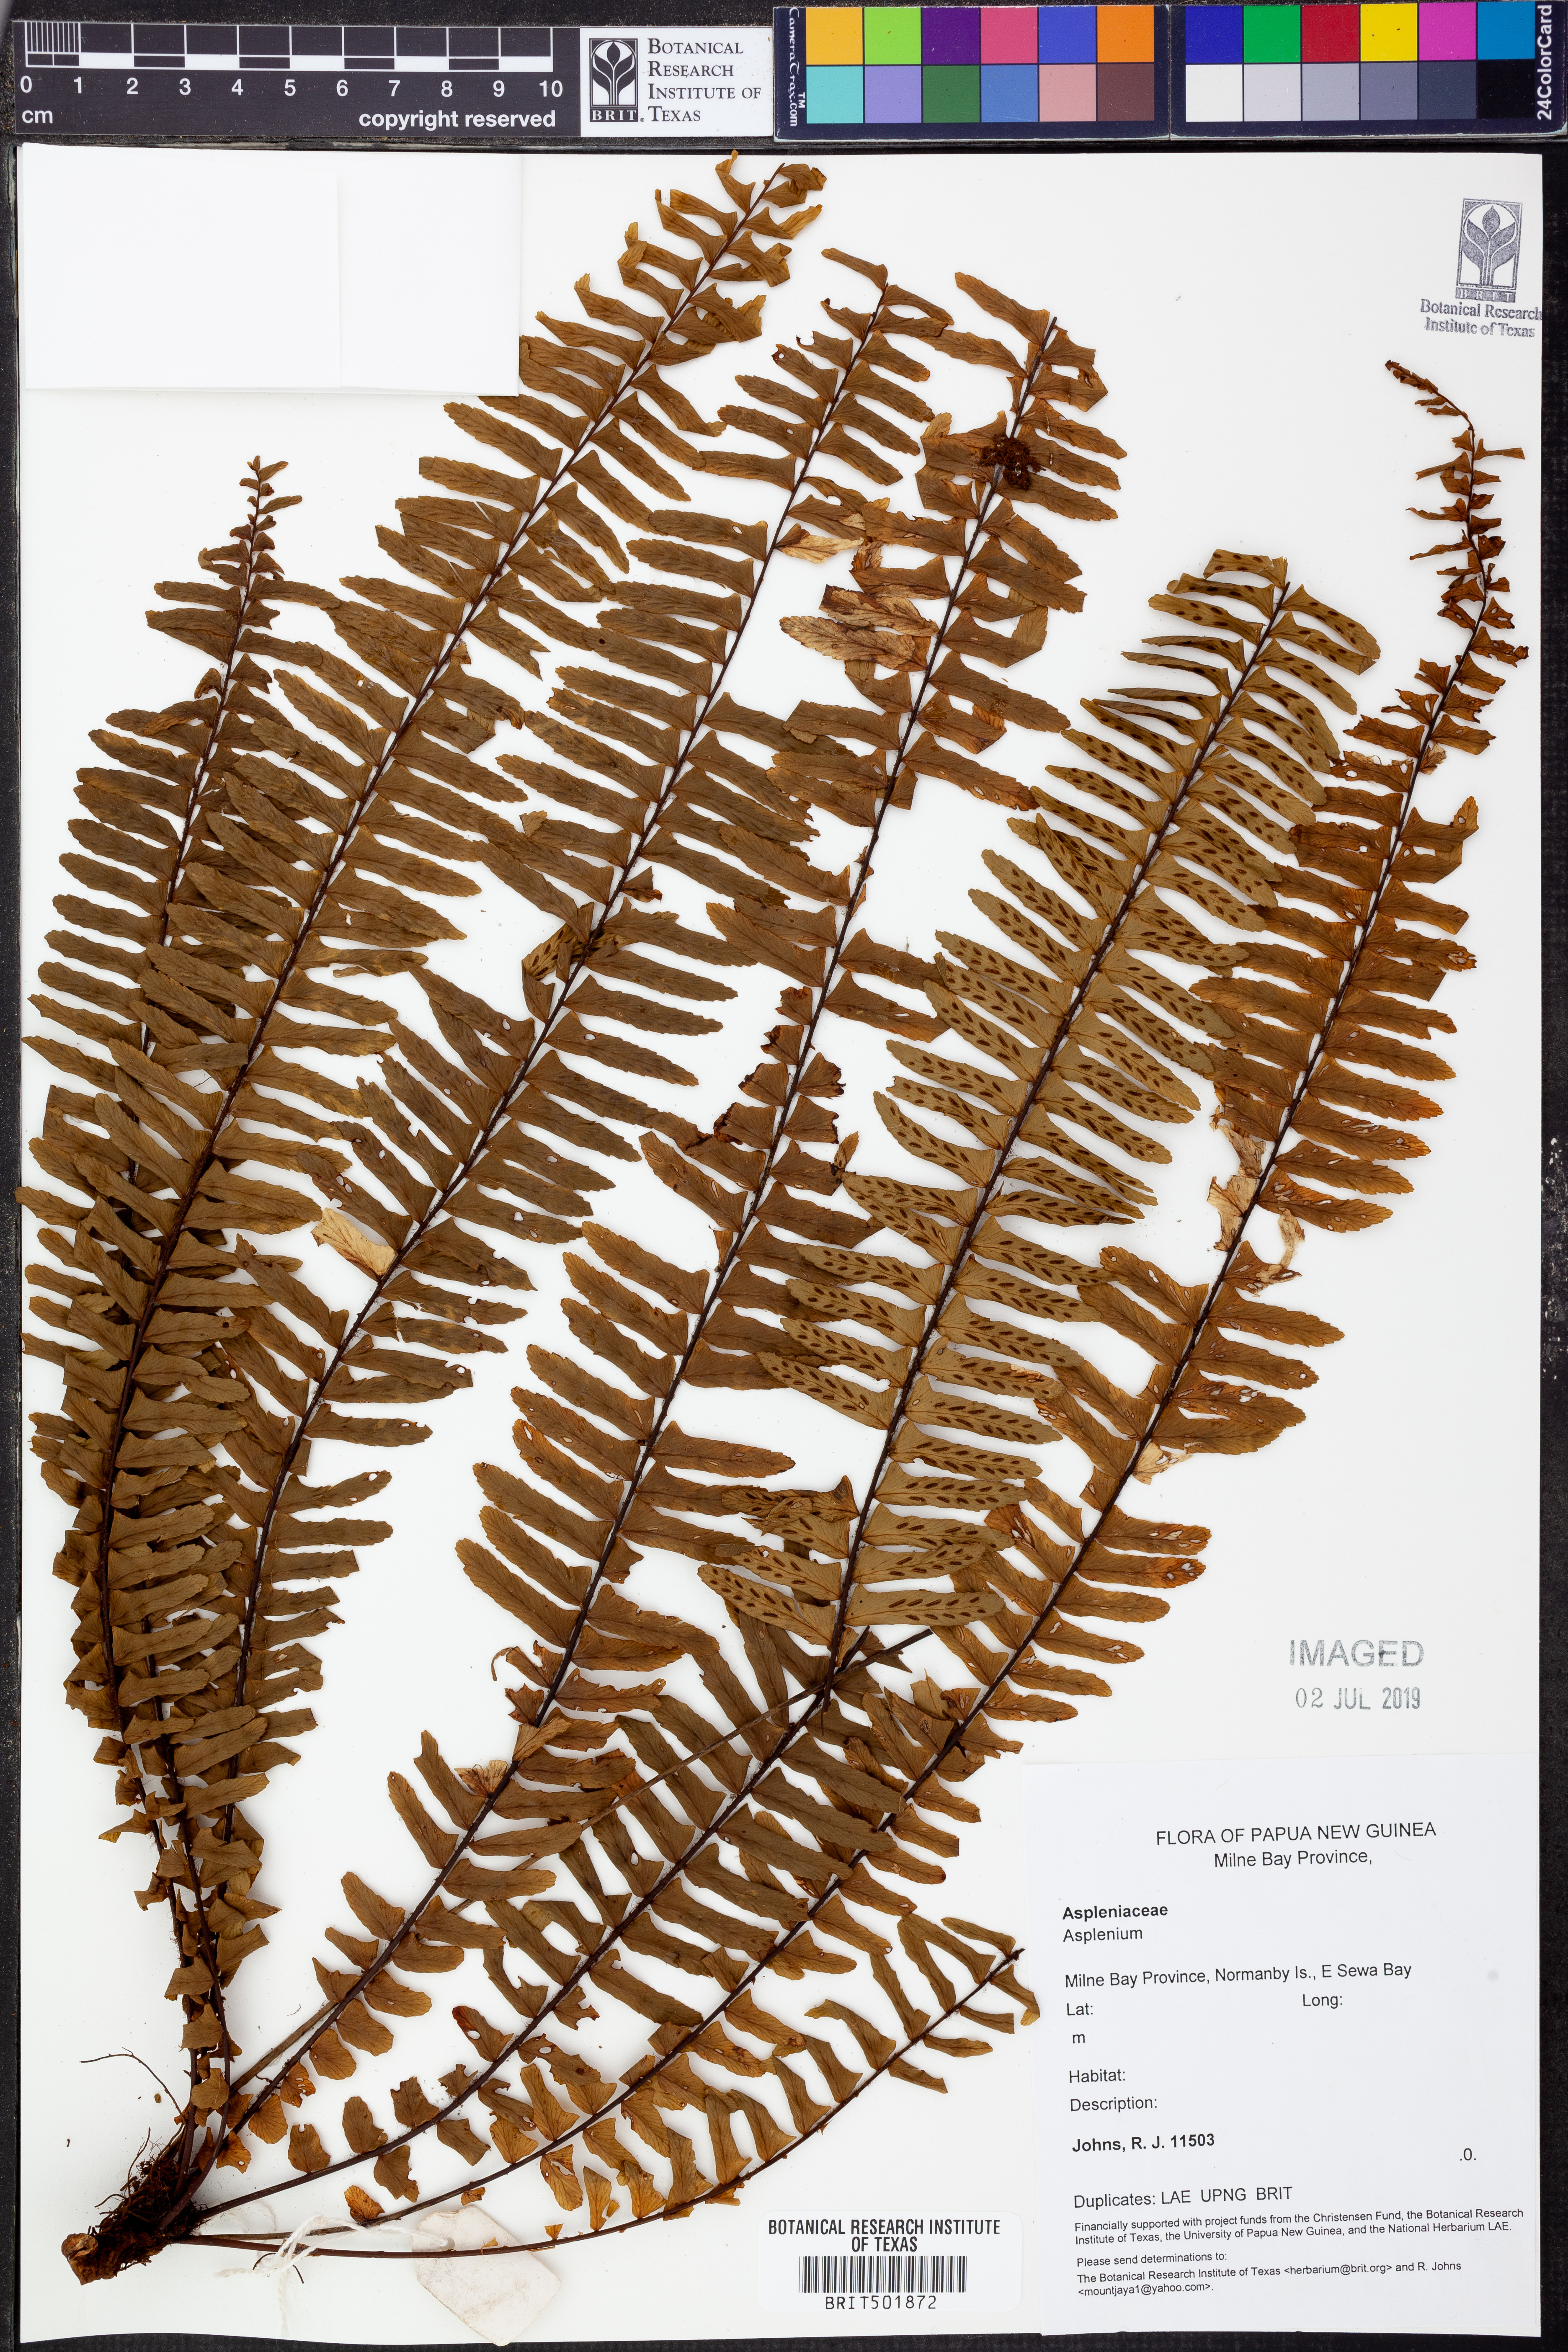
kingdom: Plantae
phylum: Tracheophyta
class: Polypodiopsida
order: Polypodiales
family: Aspleniaceae
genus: Asplenium
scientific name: Asplenium
